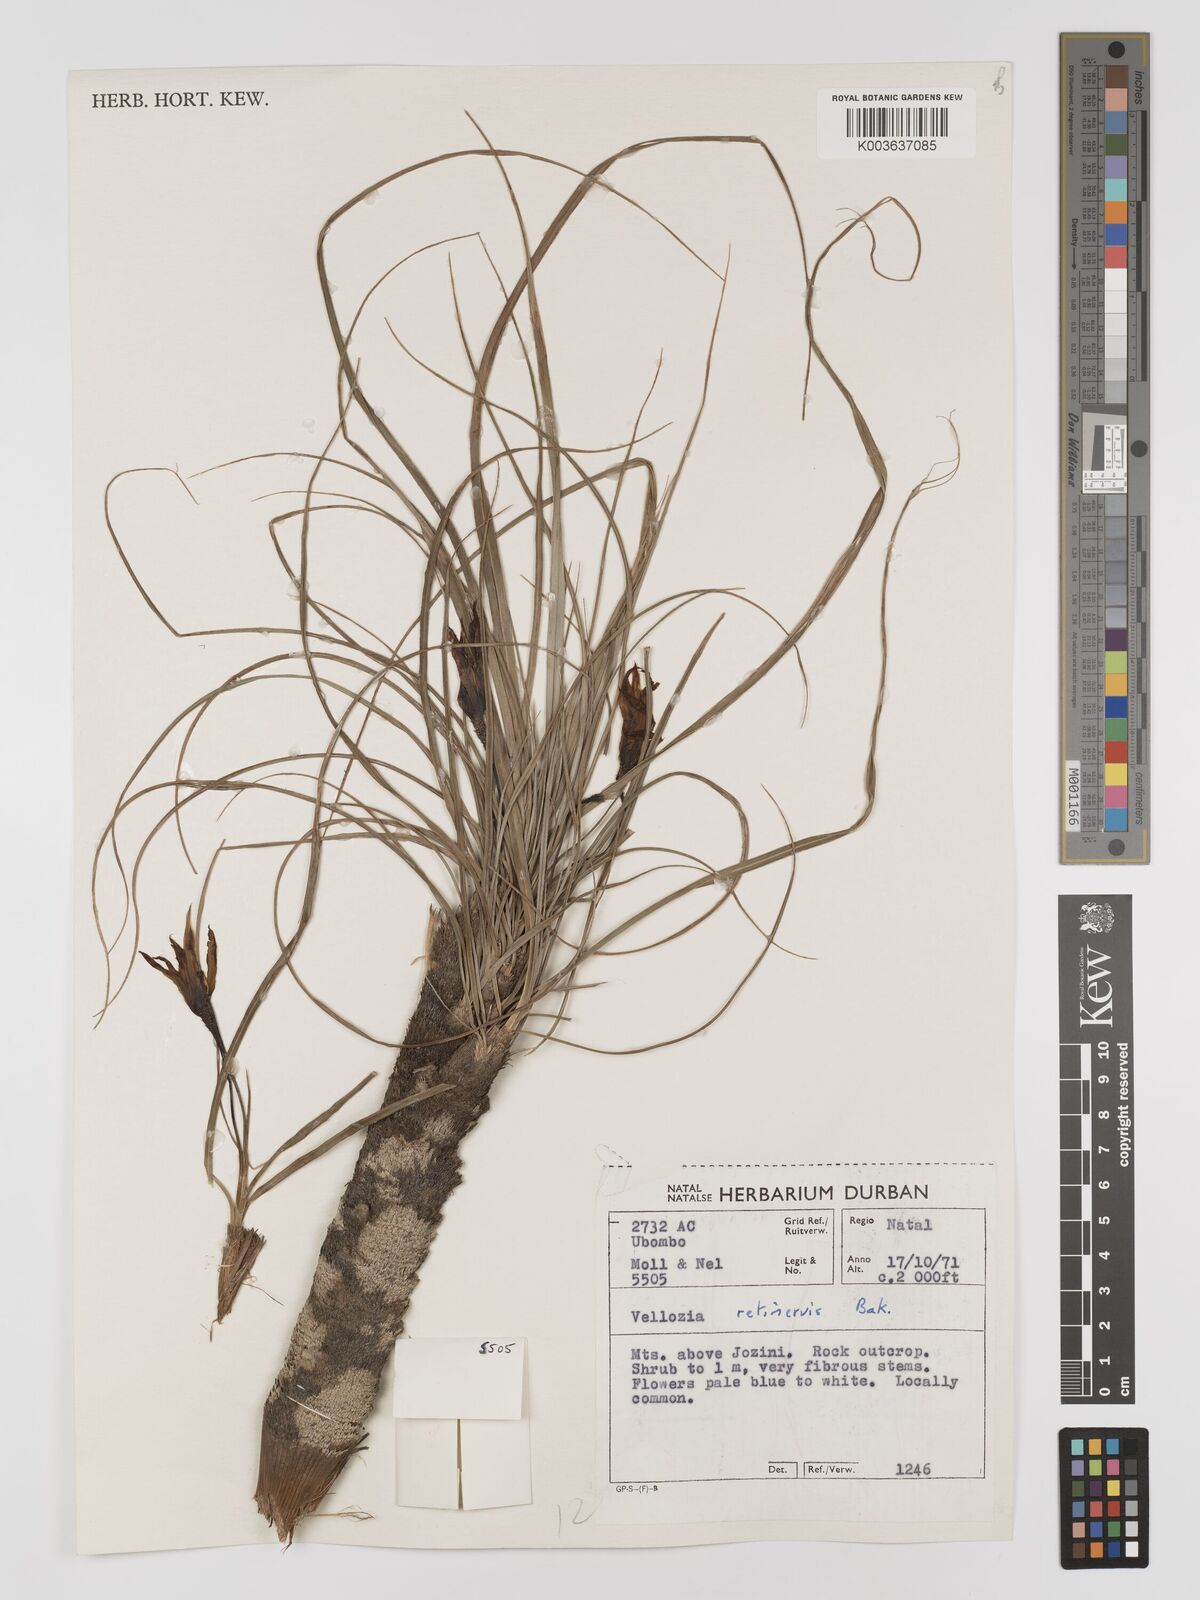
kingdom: Plantae
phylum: Tracheophyta
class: Liliopsida
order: Pandanales
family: Velloziaceae
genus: Xerophyta
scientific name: Xerophyta retinervis
